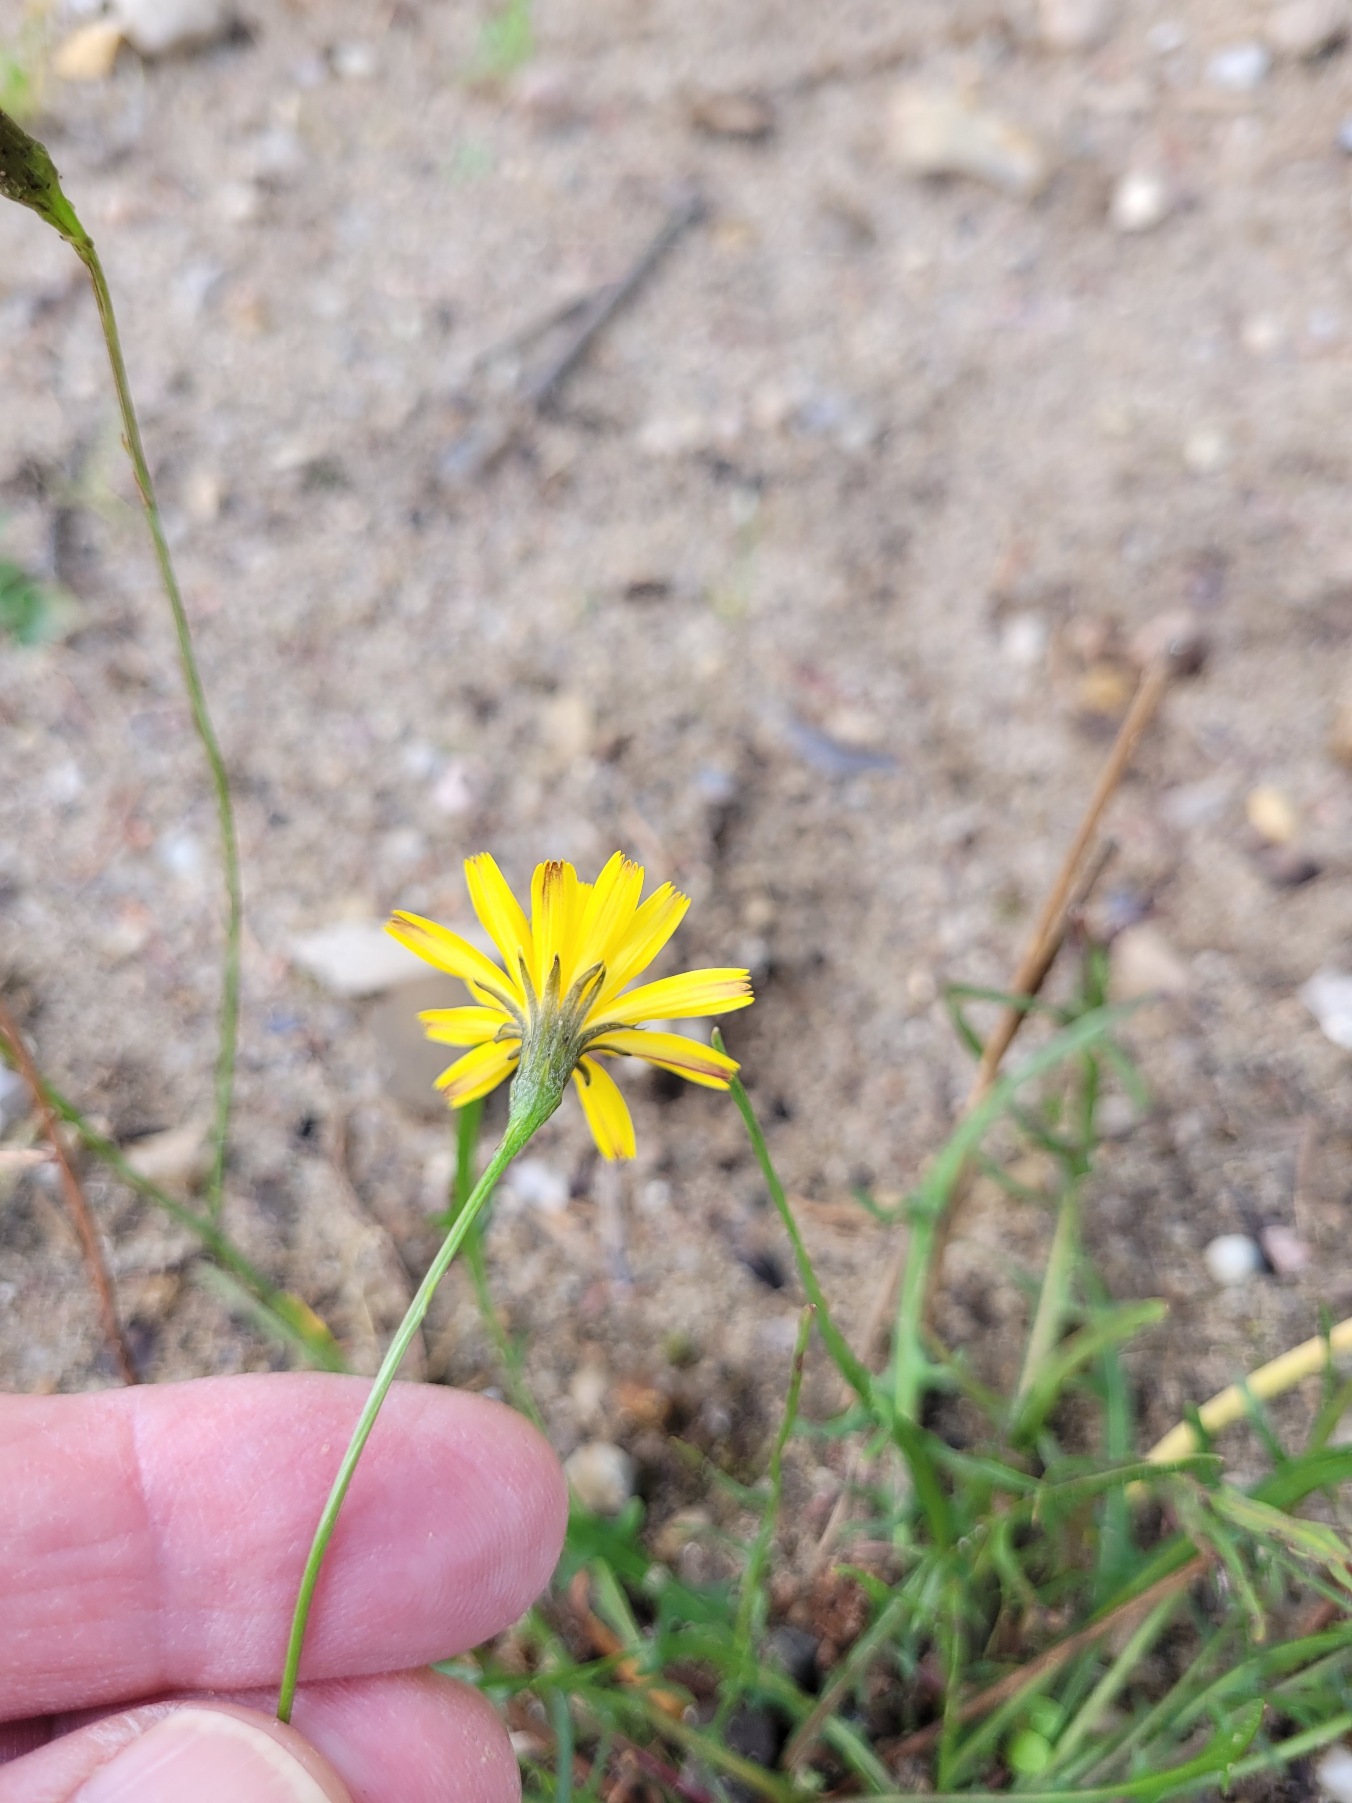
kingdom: Plantae
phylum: Tracheophyta
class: Magnoliopsida
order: Asterales
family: Asteraceae
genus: Scorzoneroides
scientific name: Scorzoneroides autumnalis
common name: Høst-borst
